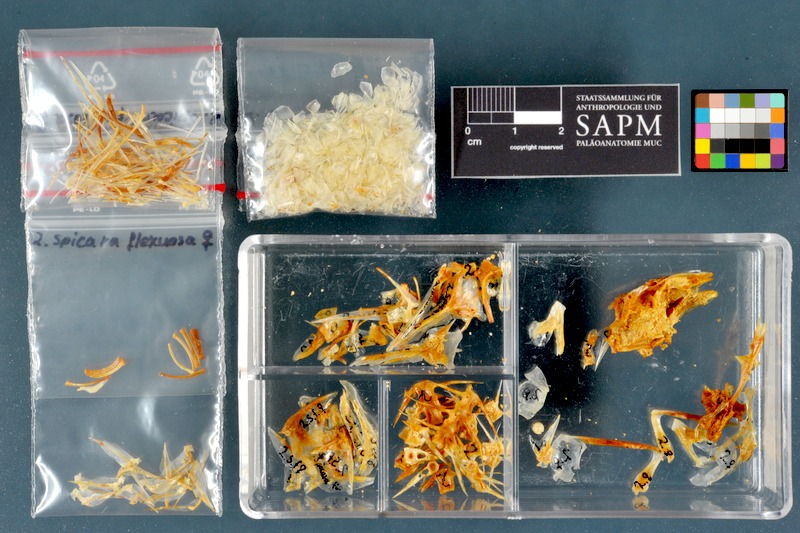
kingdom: Animalia
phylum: Chordata
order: Perciformes
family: Sparidae
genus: Spicara
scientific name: Spicara maena
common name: Blotched picarel
